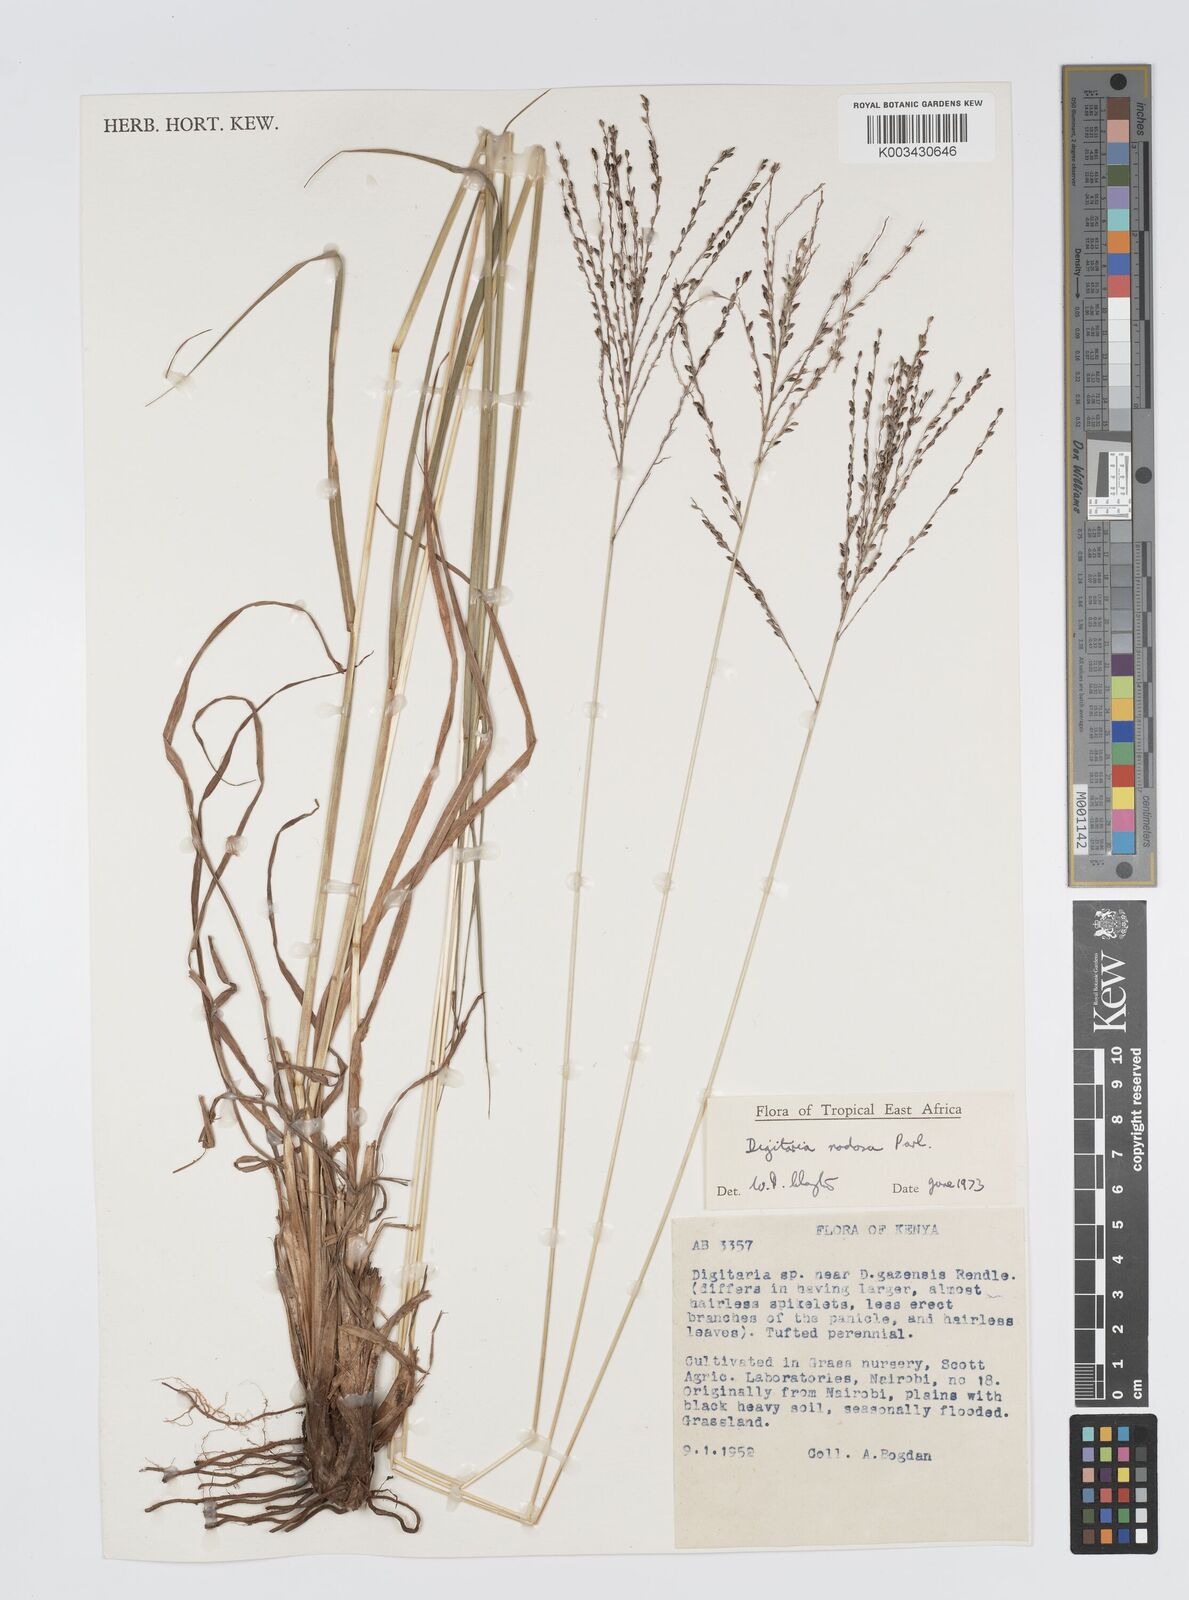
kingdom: Plantae
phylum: Tracheophyta
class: Liliopsida
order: Poales
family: Poaceae
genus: Digitaria
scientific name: Digitaria nodosa
